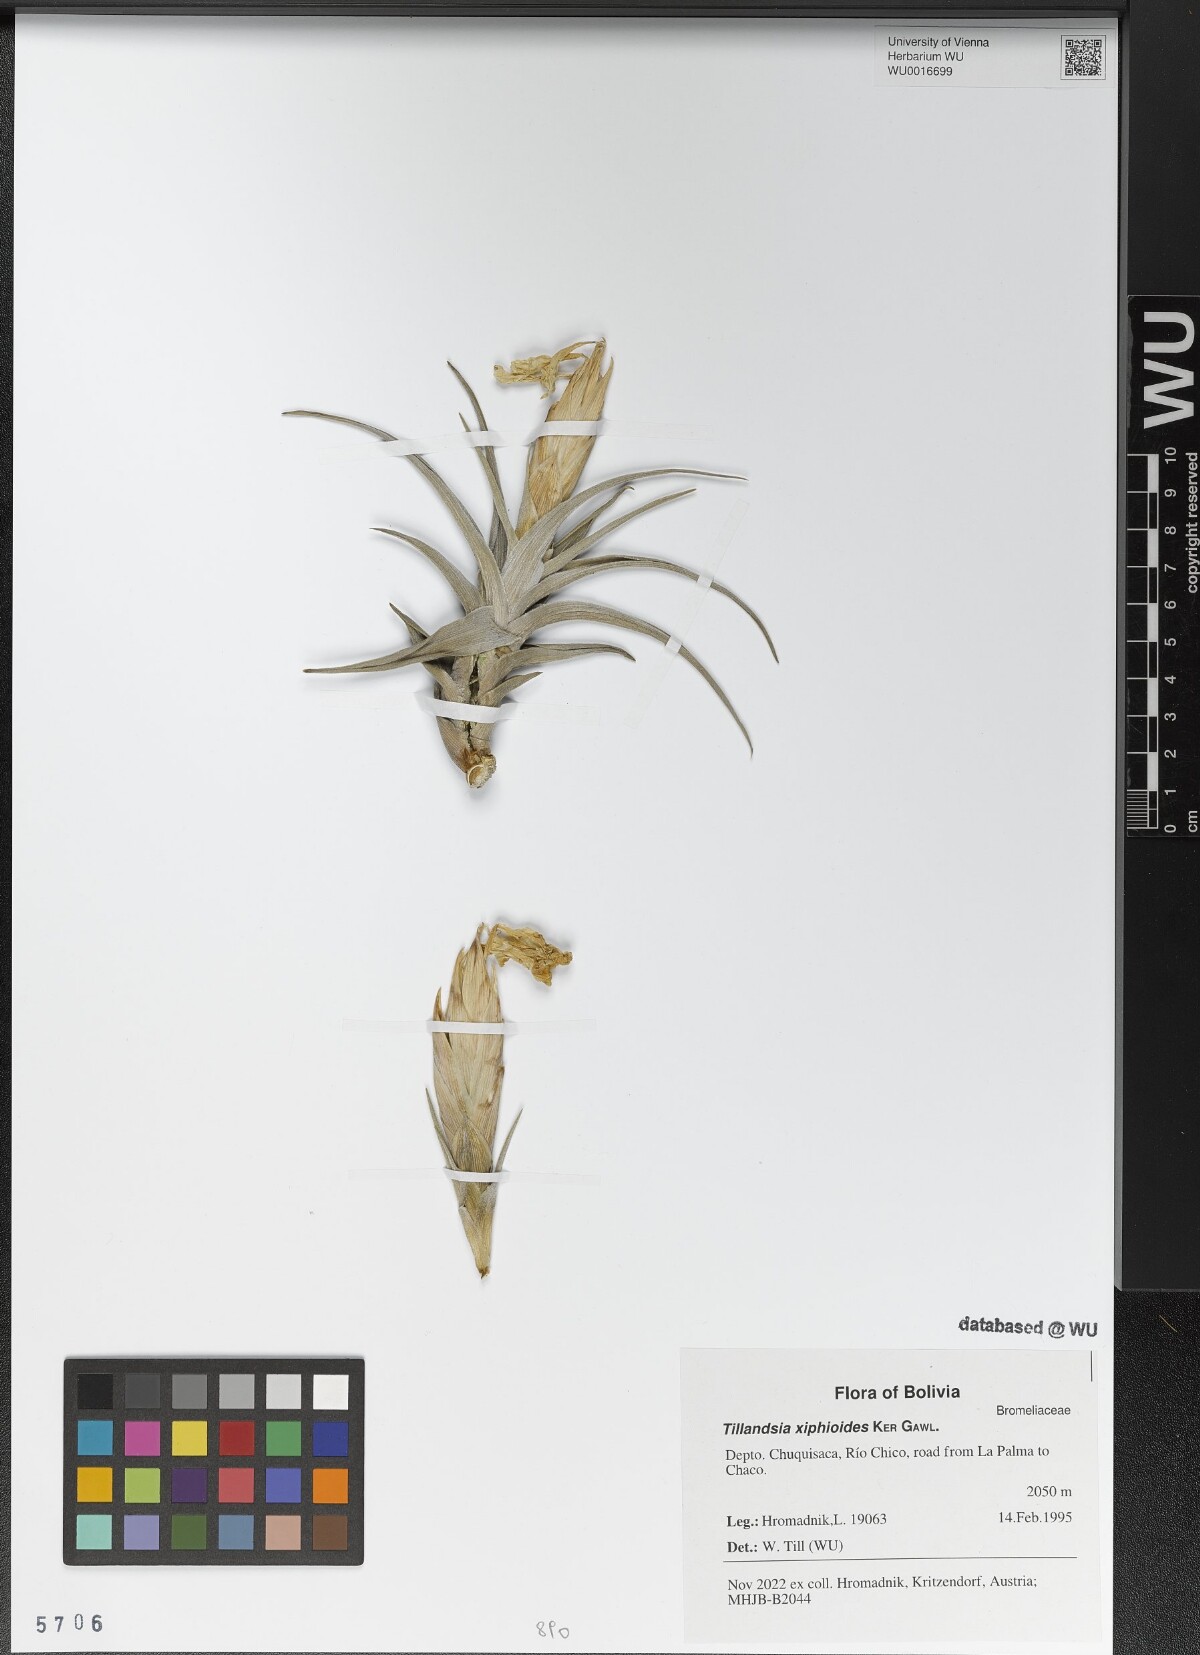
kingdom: Plantae
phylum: Tracheophyta
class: Liliopsida
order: Poales
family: Bromeliaceae
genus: Tillandsia
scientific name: Tillandsia xiphioides
